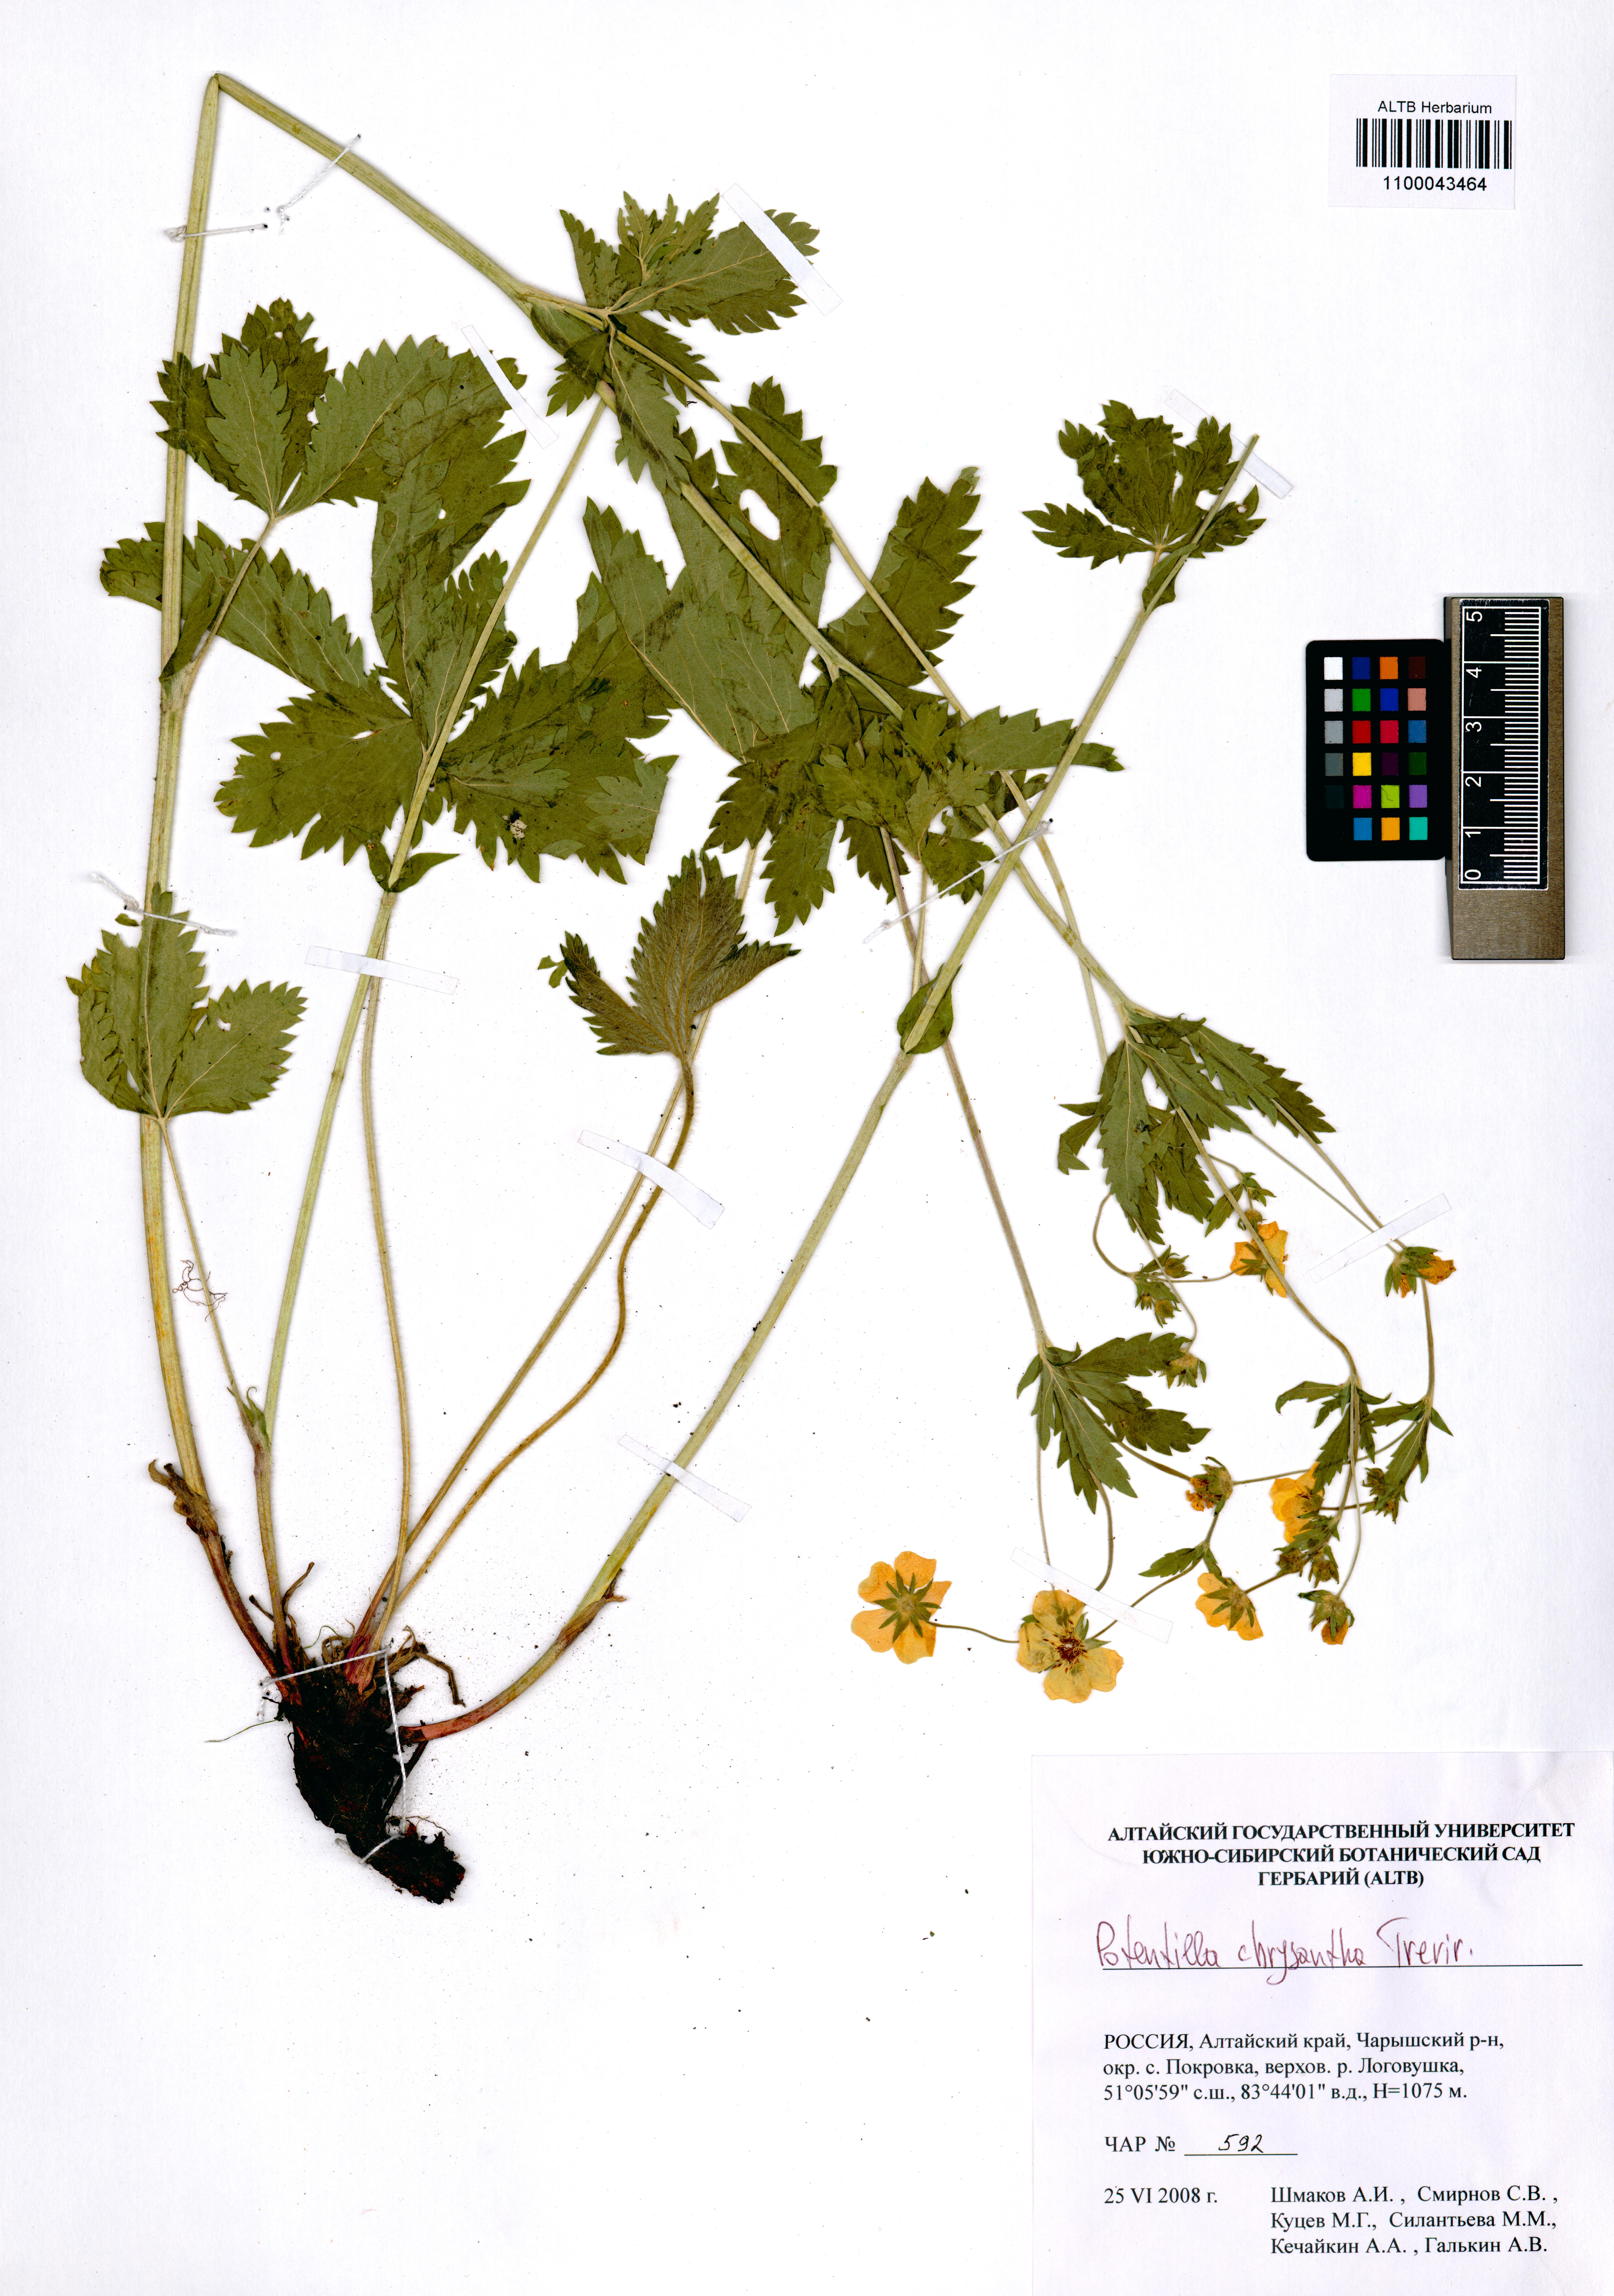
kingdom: Plantae
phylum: Tracheophyta
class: Magnoliopsida
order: Rosales
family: Rosaceae
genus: Potentilla
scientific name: Potentilla chrysantha
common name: Thuringian cinquefoil
